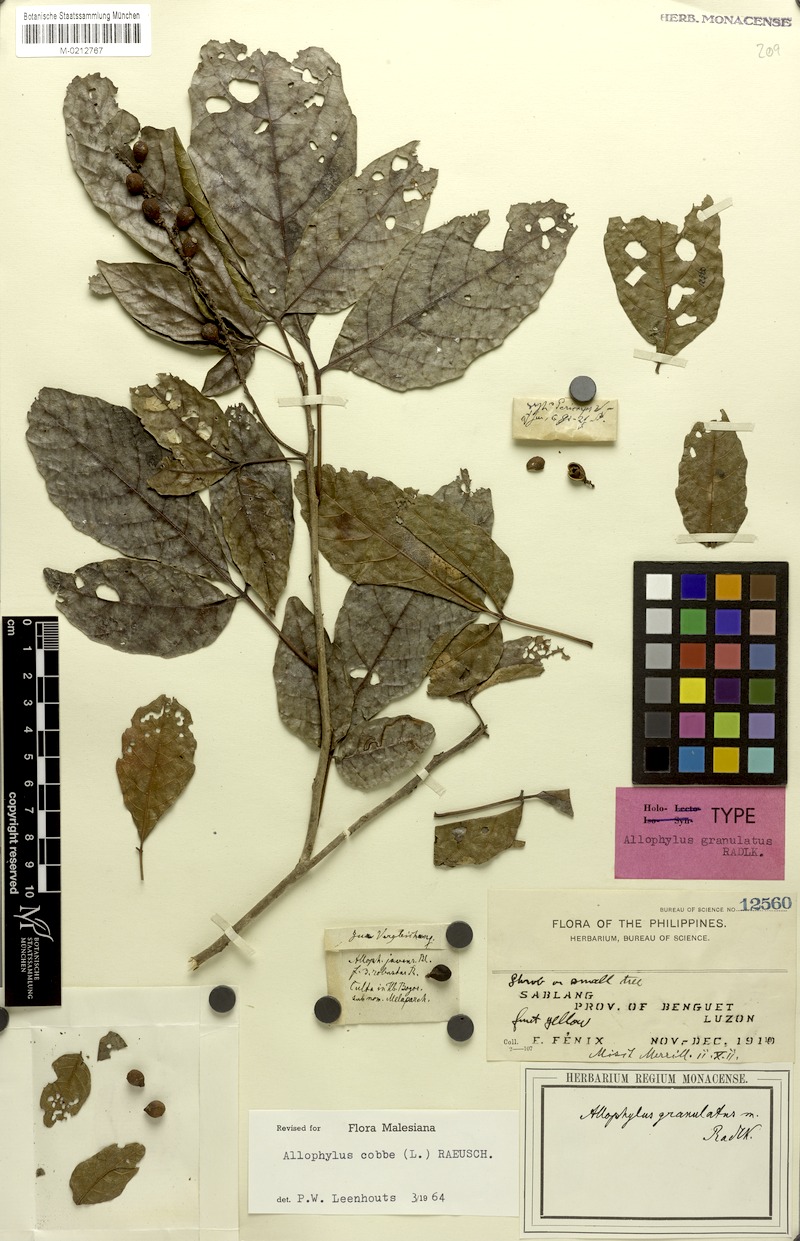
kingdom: Plantae
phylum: Tracheophyta
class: Magnoliopsida
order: Sapindales
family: Sapindaceae
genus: Allophylus
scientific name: Allophylus cobbe
